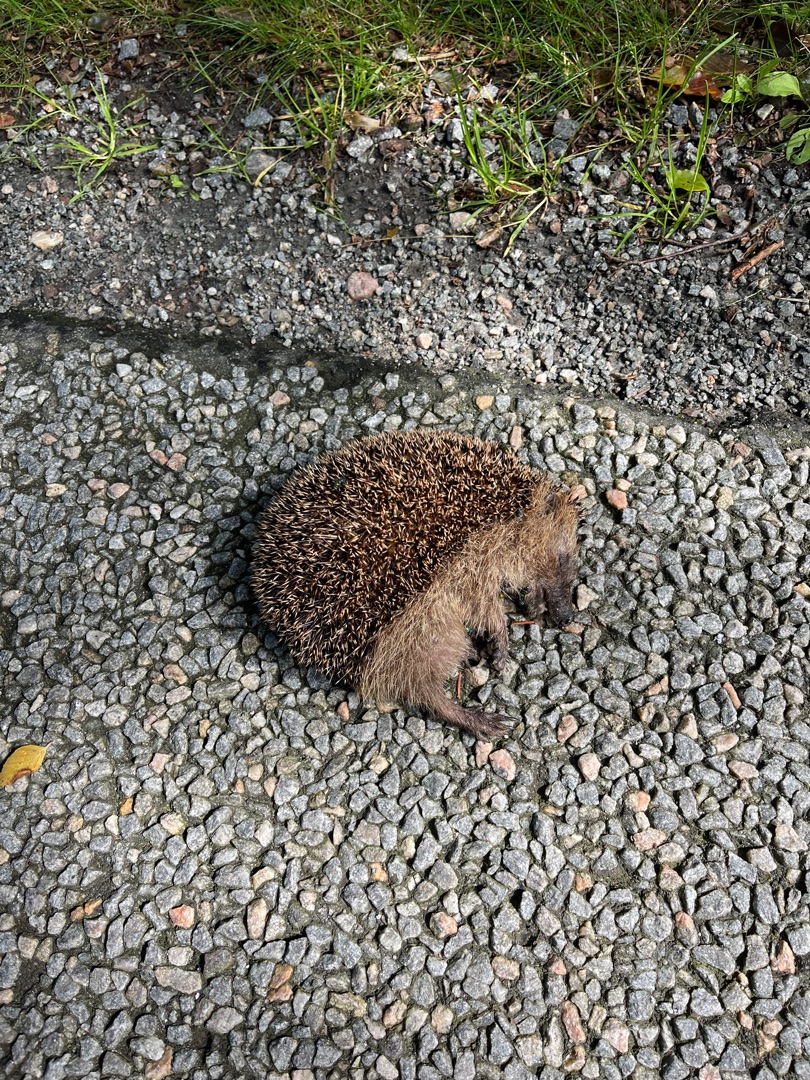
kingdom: Animalia
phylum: Chordata
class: Mammalia
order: Erinaceomorpha
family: Erinaceidae
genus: Erinaceus
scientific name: Erinaceus europaeus
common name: Pindsvin
